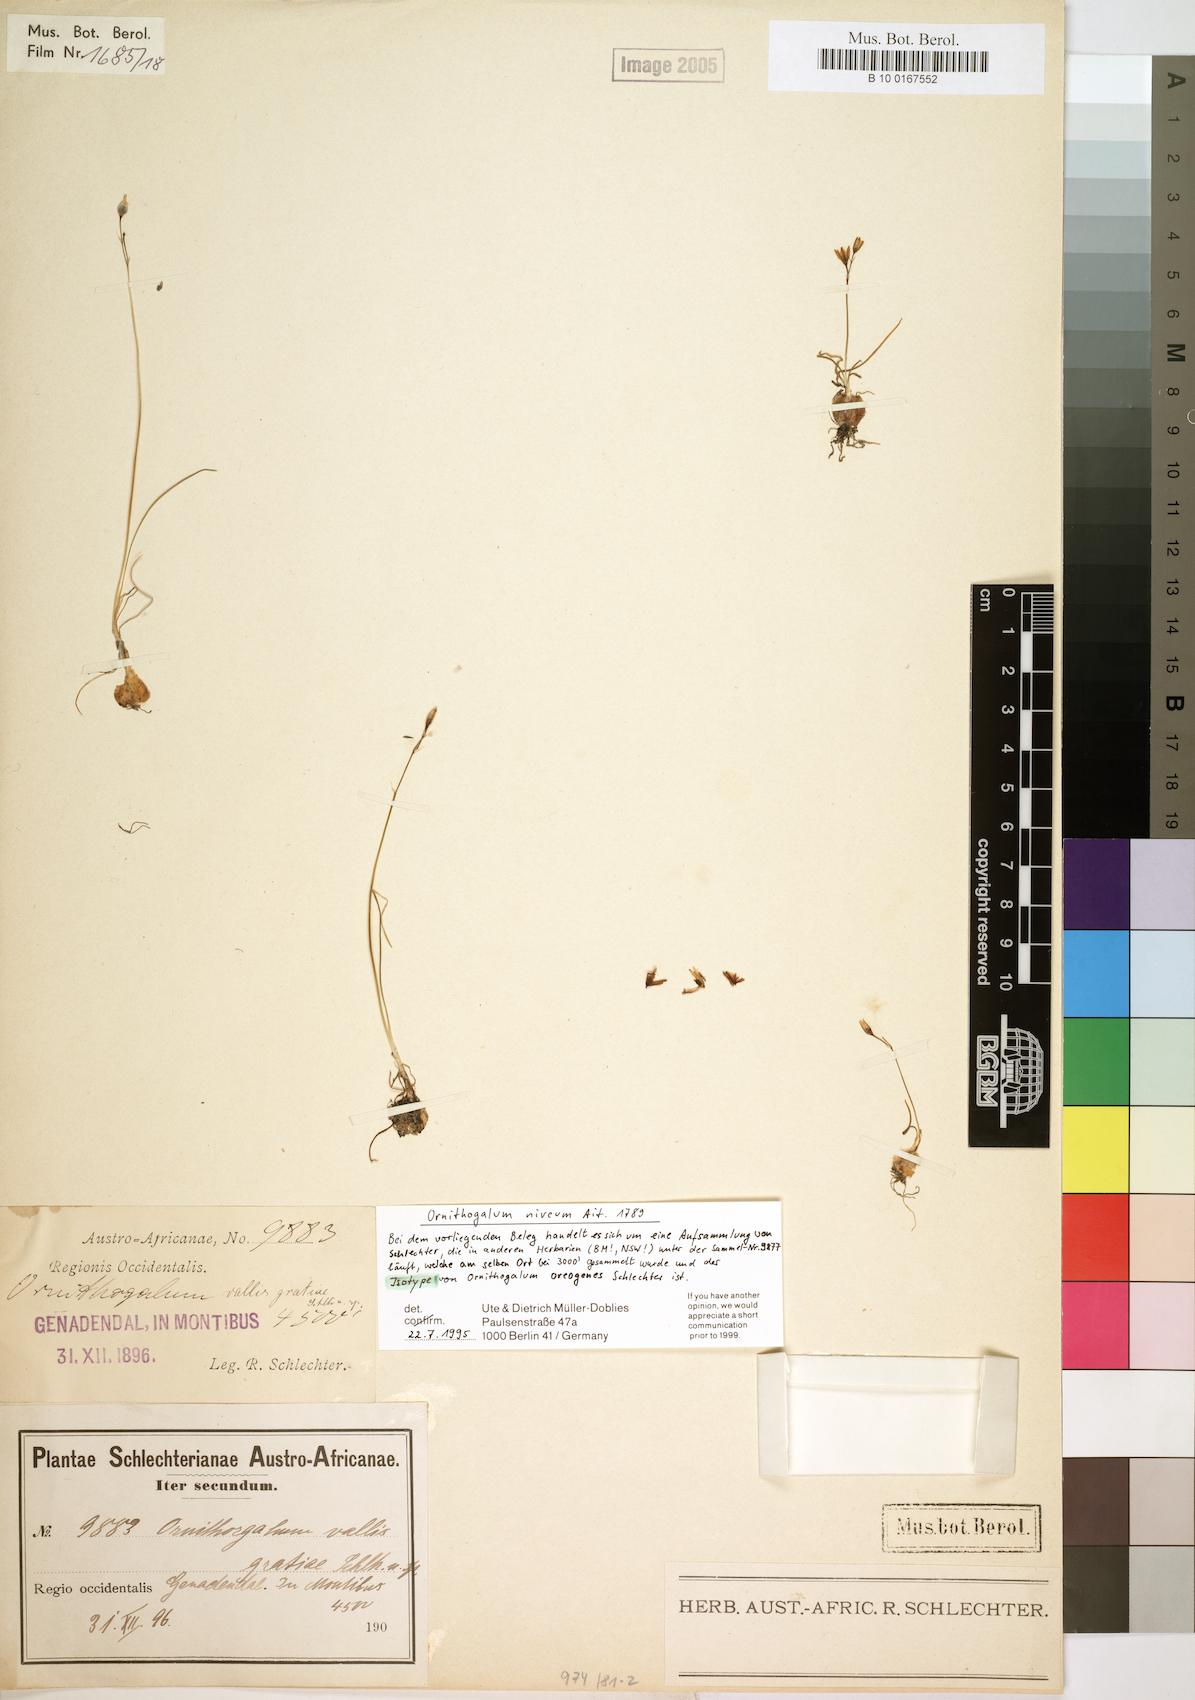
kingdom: Plantae
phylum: Tracheophyta
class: Liliopsida
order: Asparagales
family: Asparagaceae
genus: Ornithogalum
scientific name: Ornithogalum niveum
